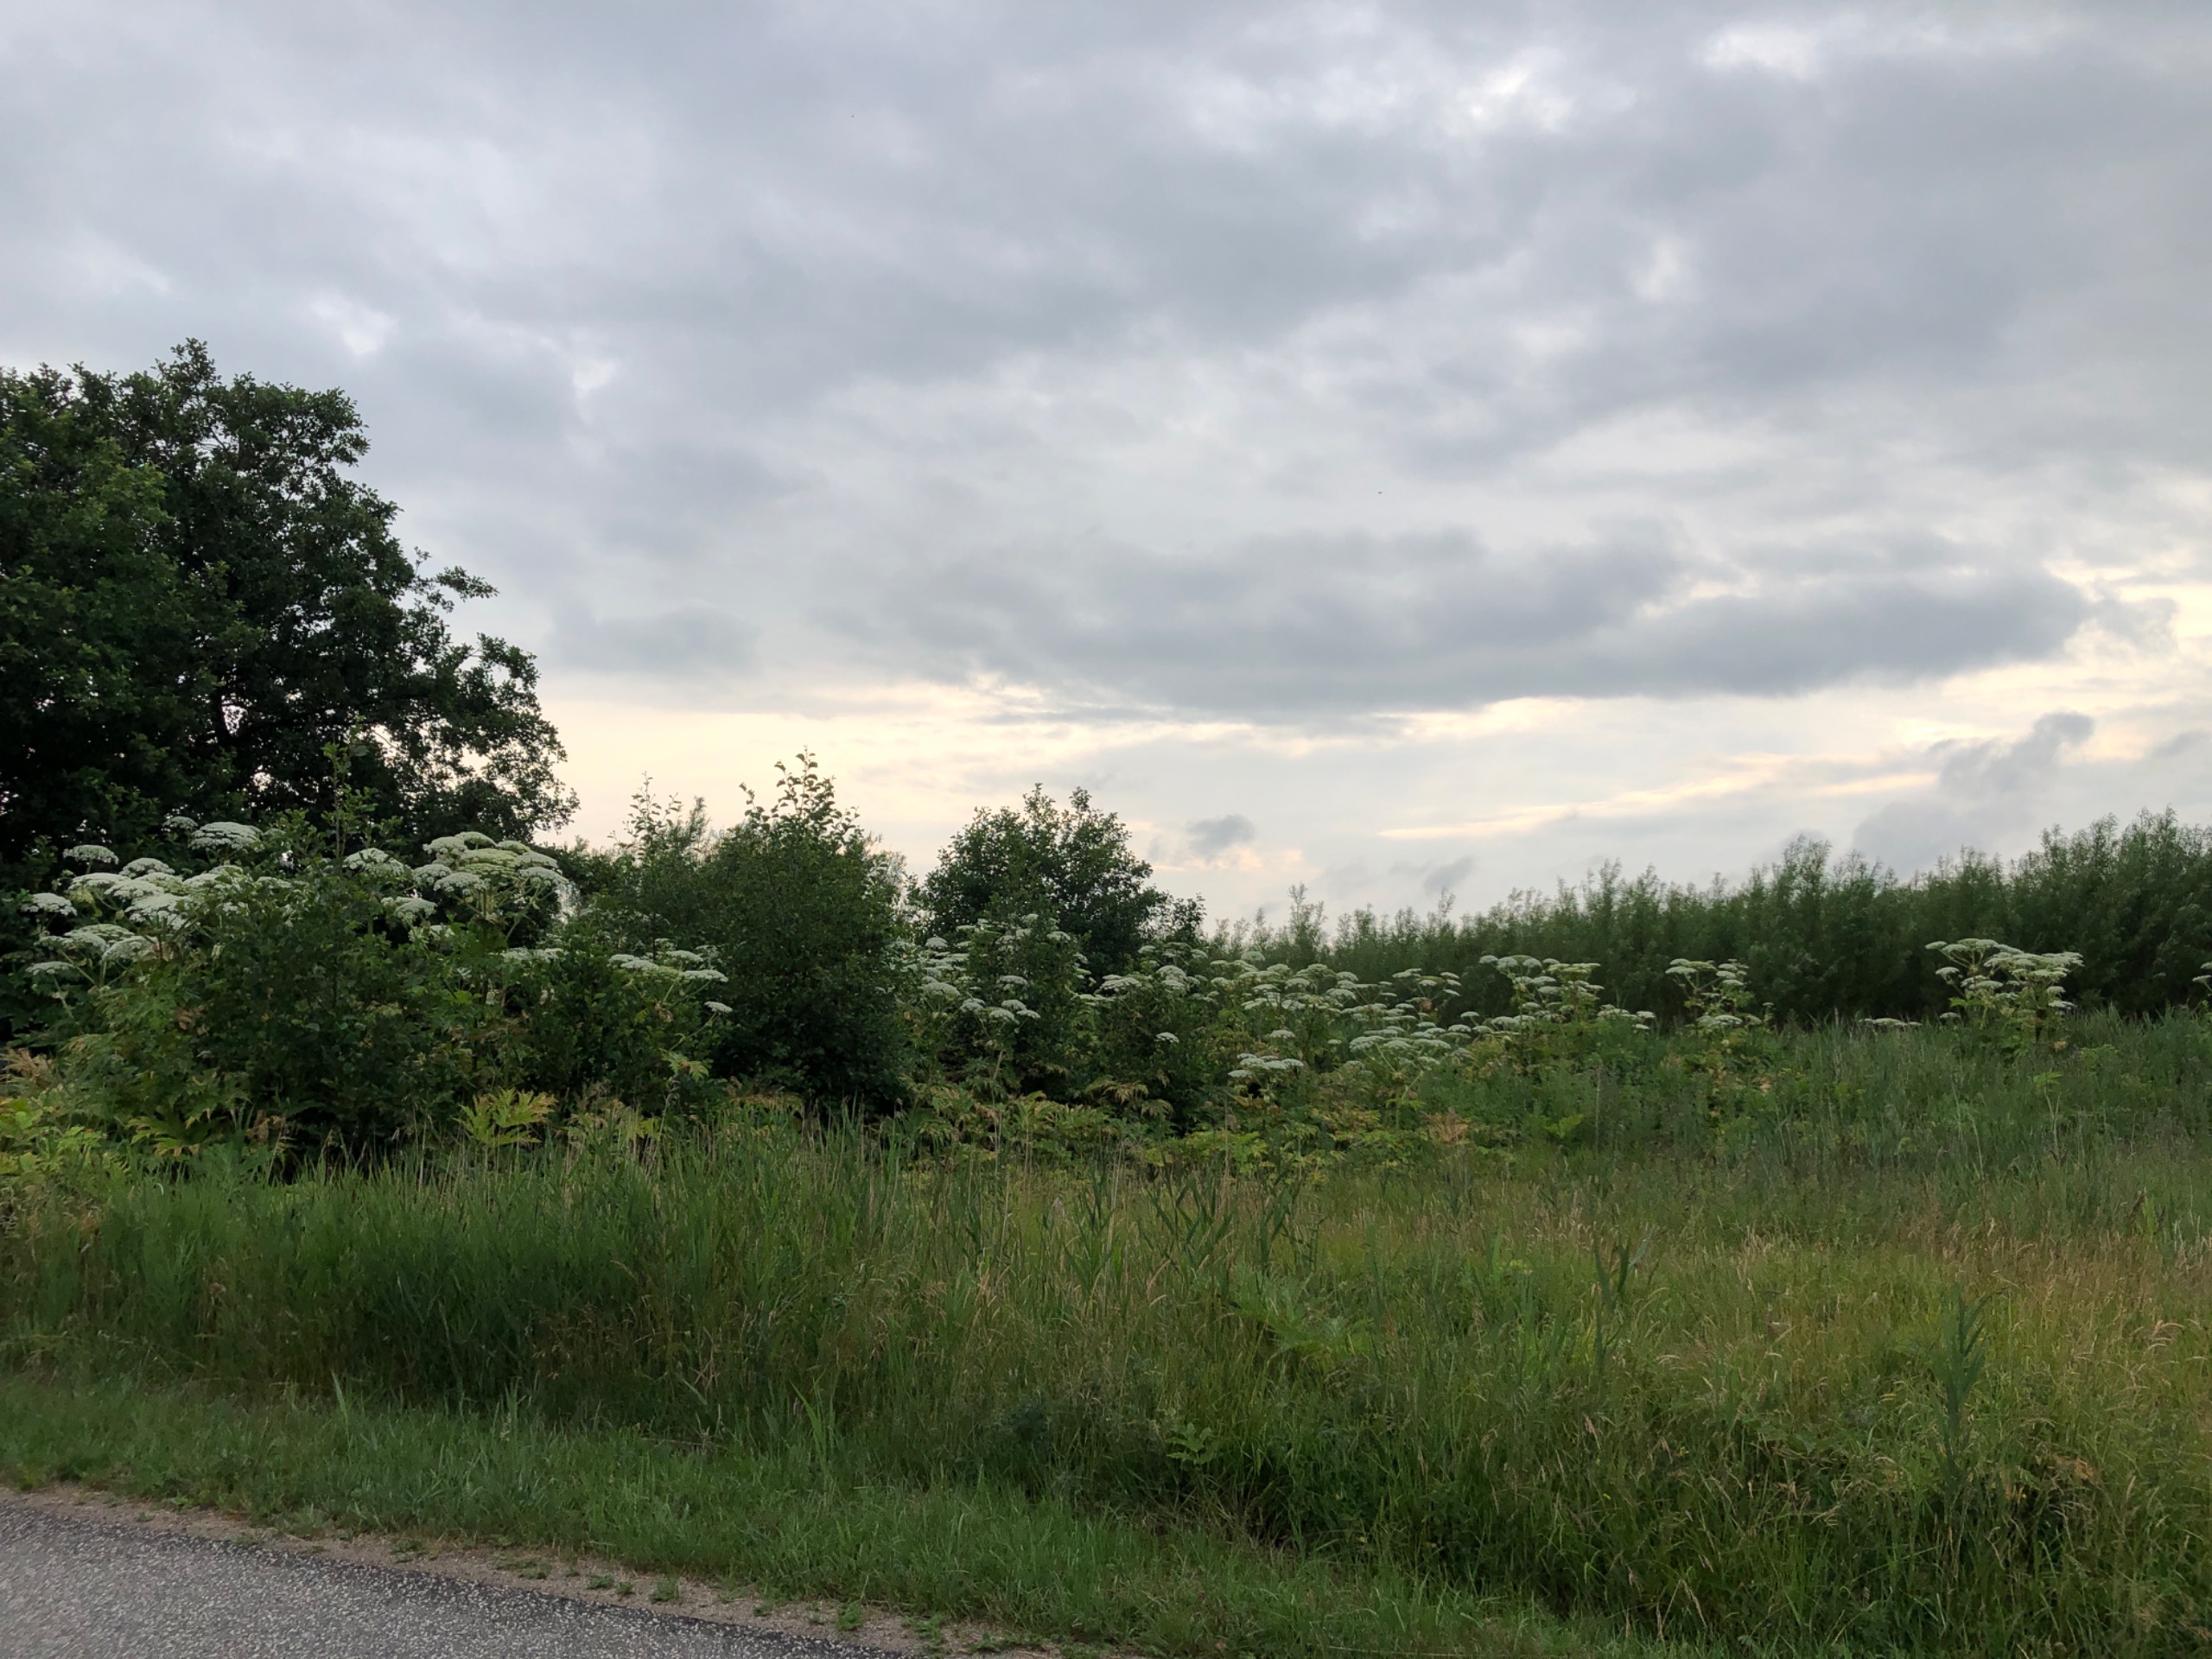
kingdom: Plantae
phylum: Tracheophyta
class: Magnoliopsida
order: Apiales
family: Apiaceae
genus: Heracleum
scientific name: Heracleum mantegazzianum
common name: Kæmpe-bjørneklo
